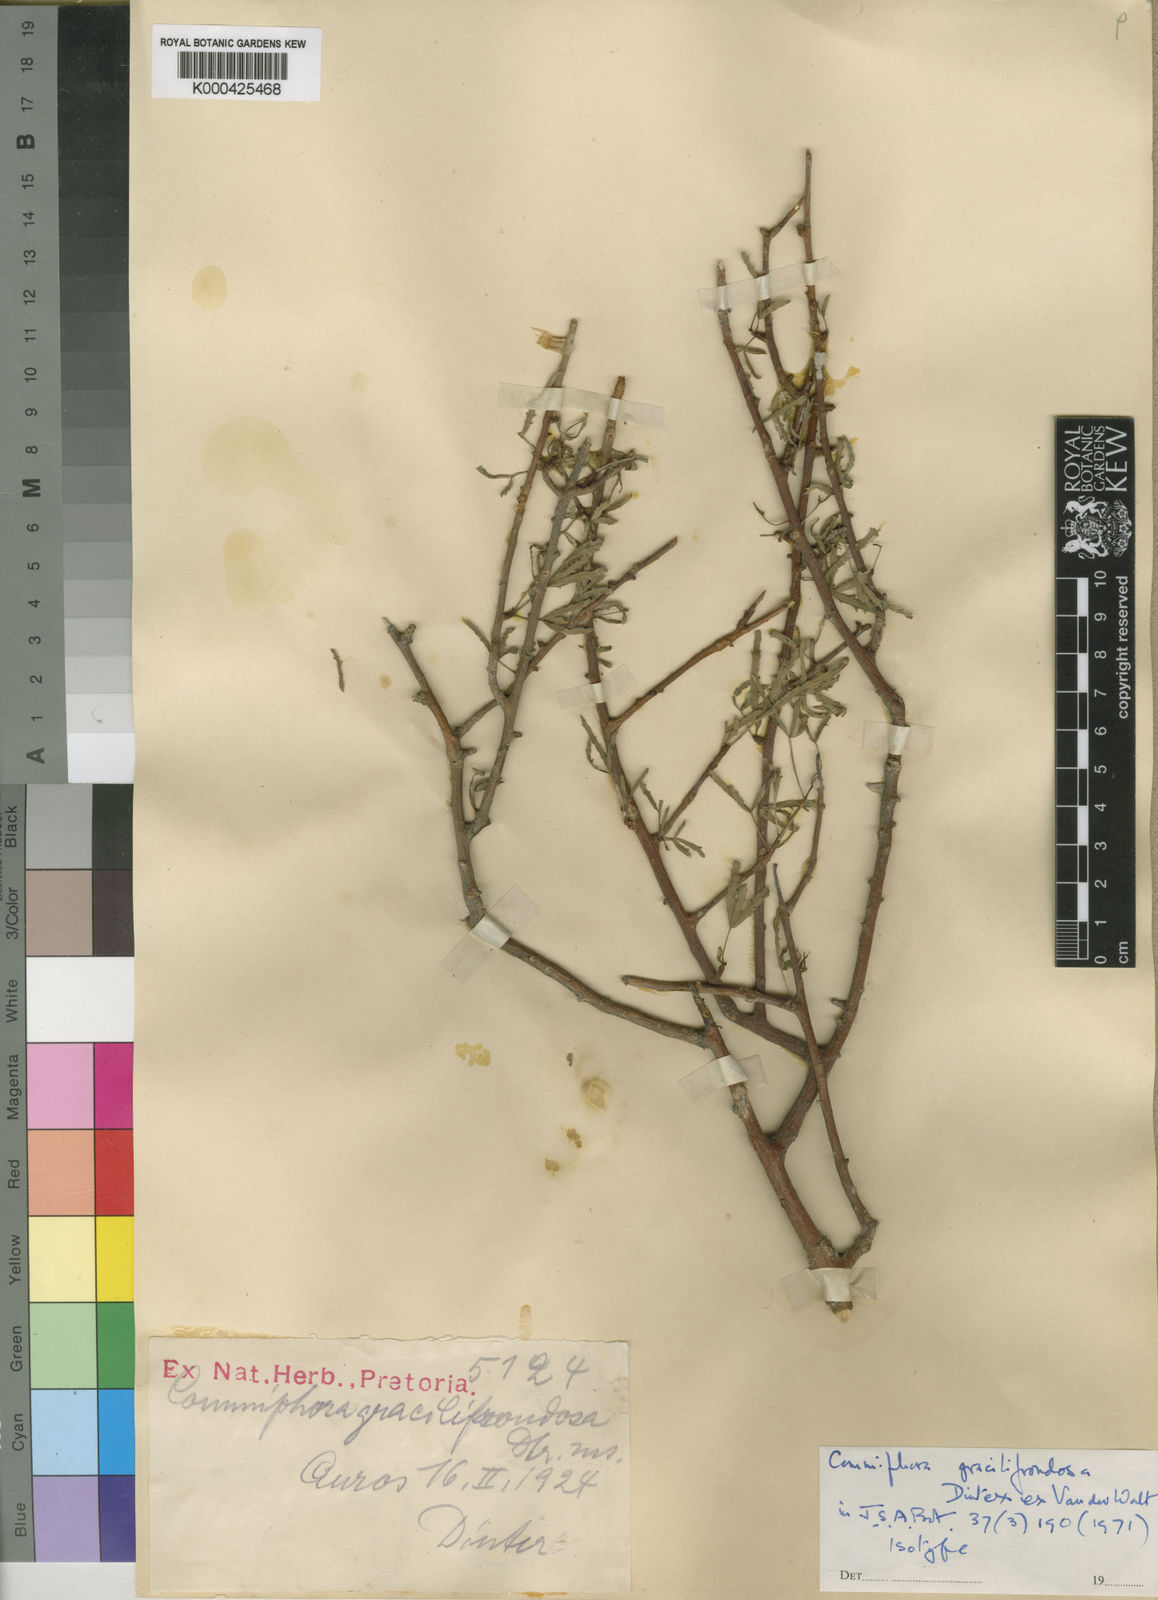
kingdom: Plantae
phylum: Tracheophyta
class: Magnoliopsida
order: Sapindales
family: Burseraceae
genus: Commiphora
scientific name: Commiphora gracilifrondosa
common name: Karee-leaved commiphora
